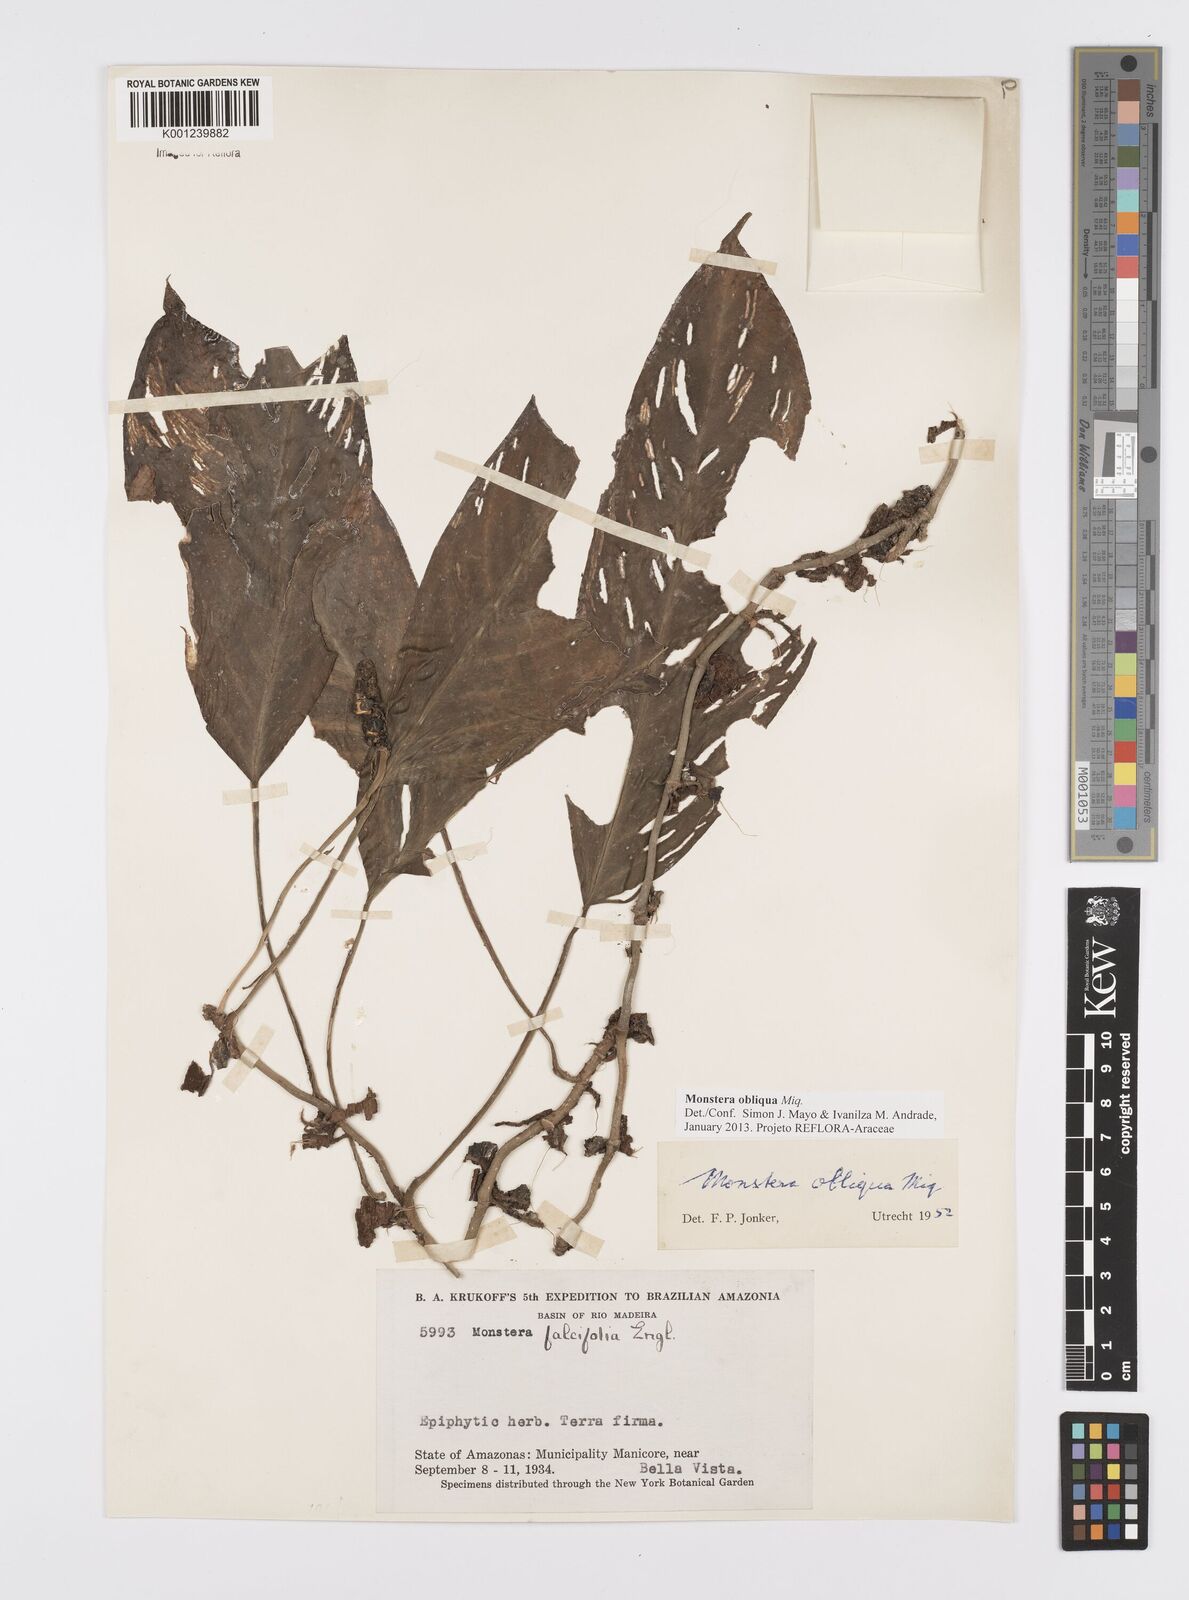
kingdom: Plantae
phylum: Tracheophyta
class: Liliopsida
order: Alismatales
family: Araceae
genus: Monstera
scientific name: Monstera obliqua
